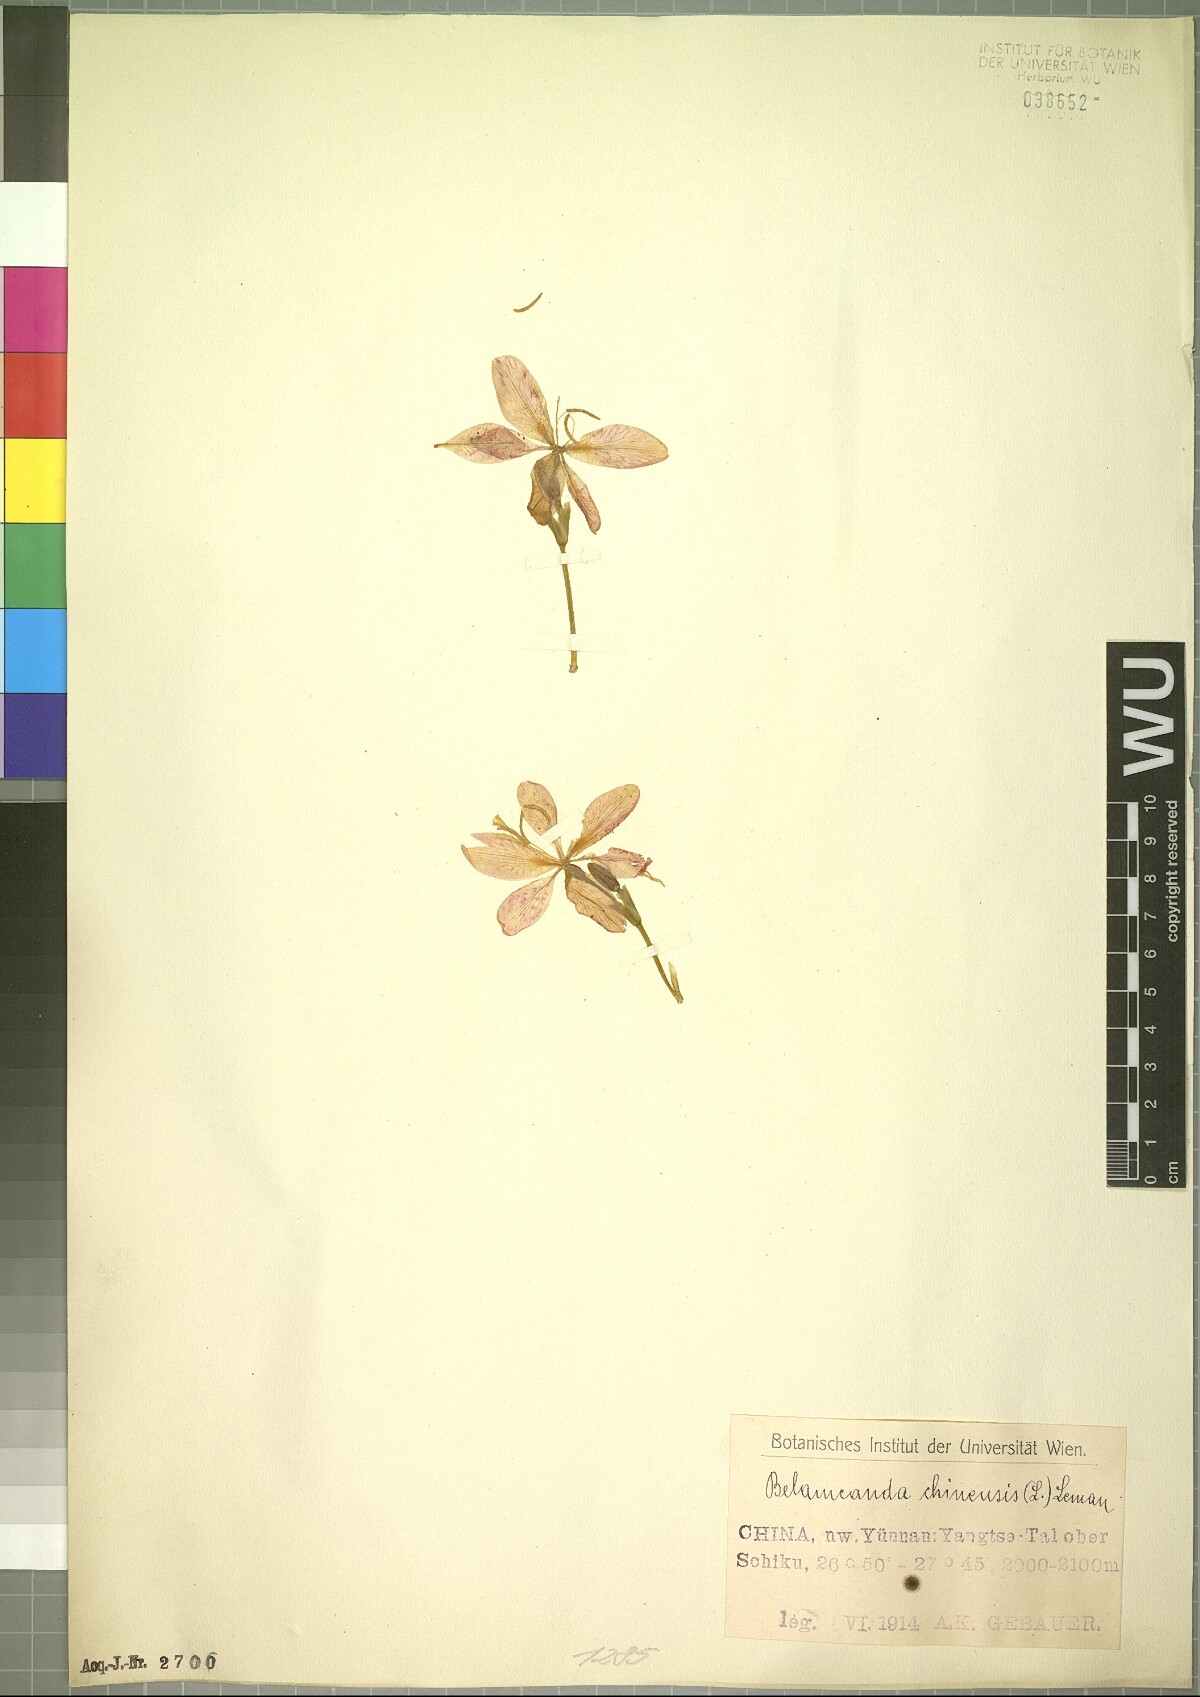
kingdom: Plantae
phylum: Tracheophyta
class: Liliopsida
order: Asparagales
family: Iridaceae
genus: Iris
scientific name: Iris domestica
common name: Belamcanda
